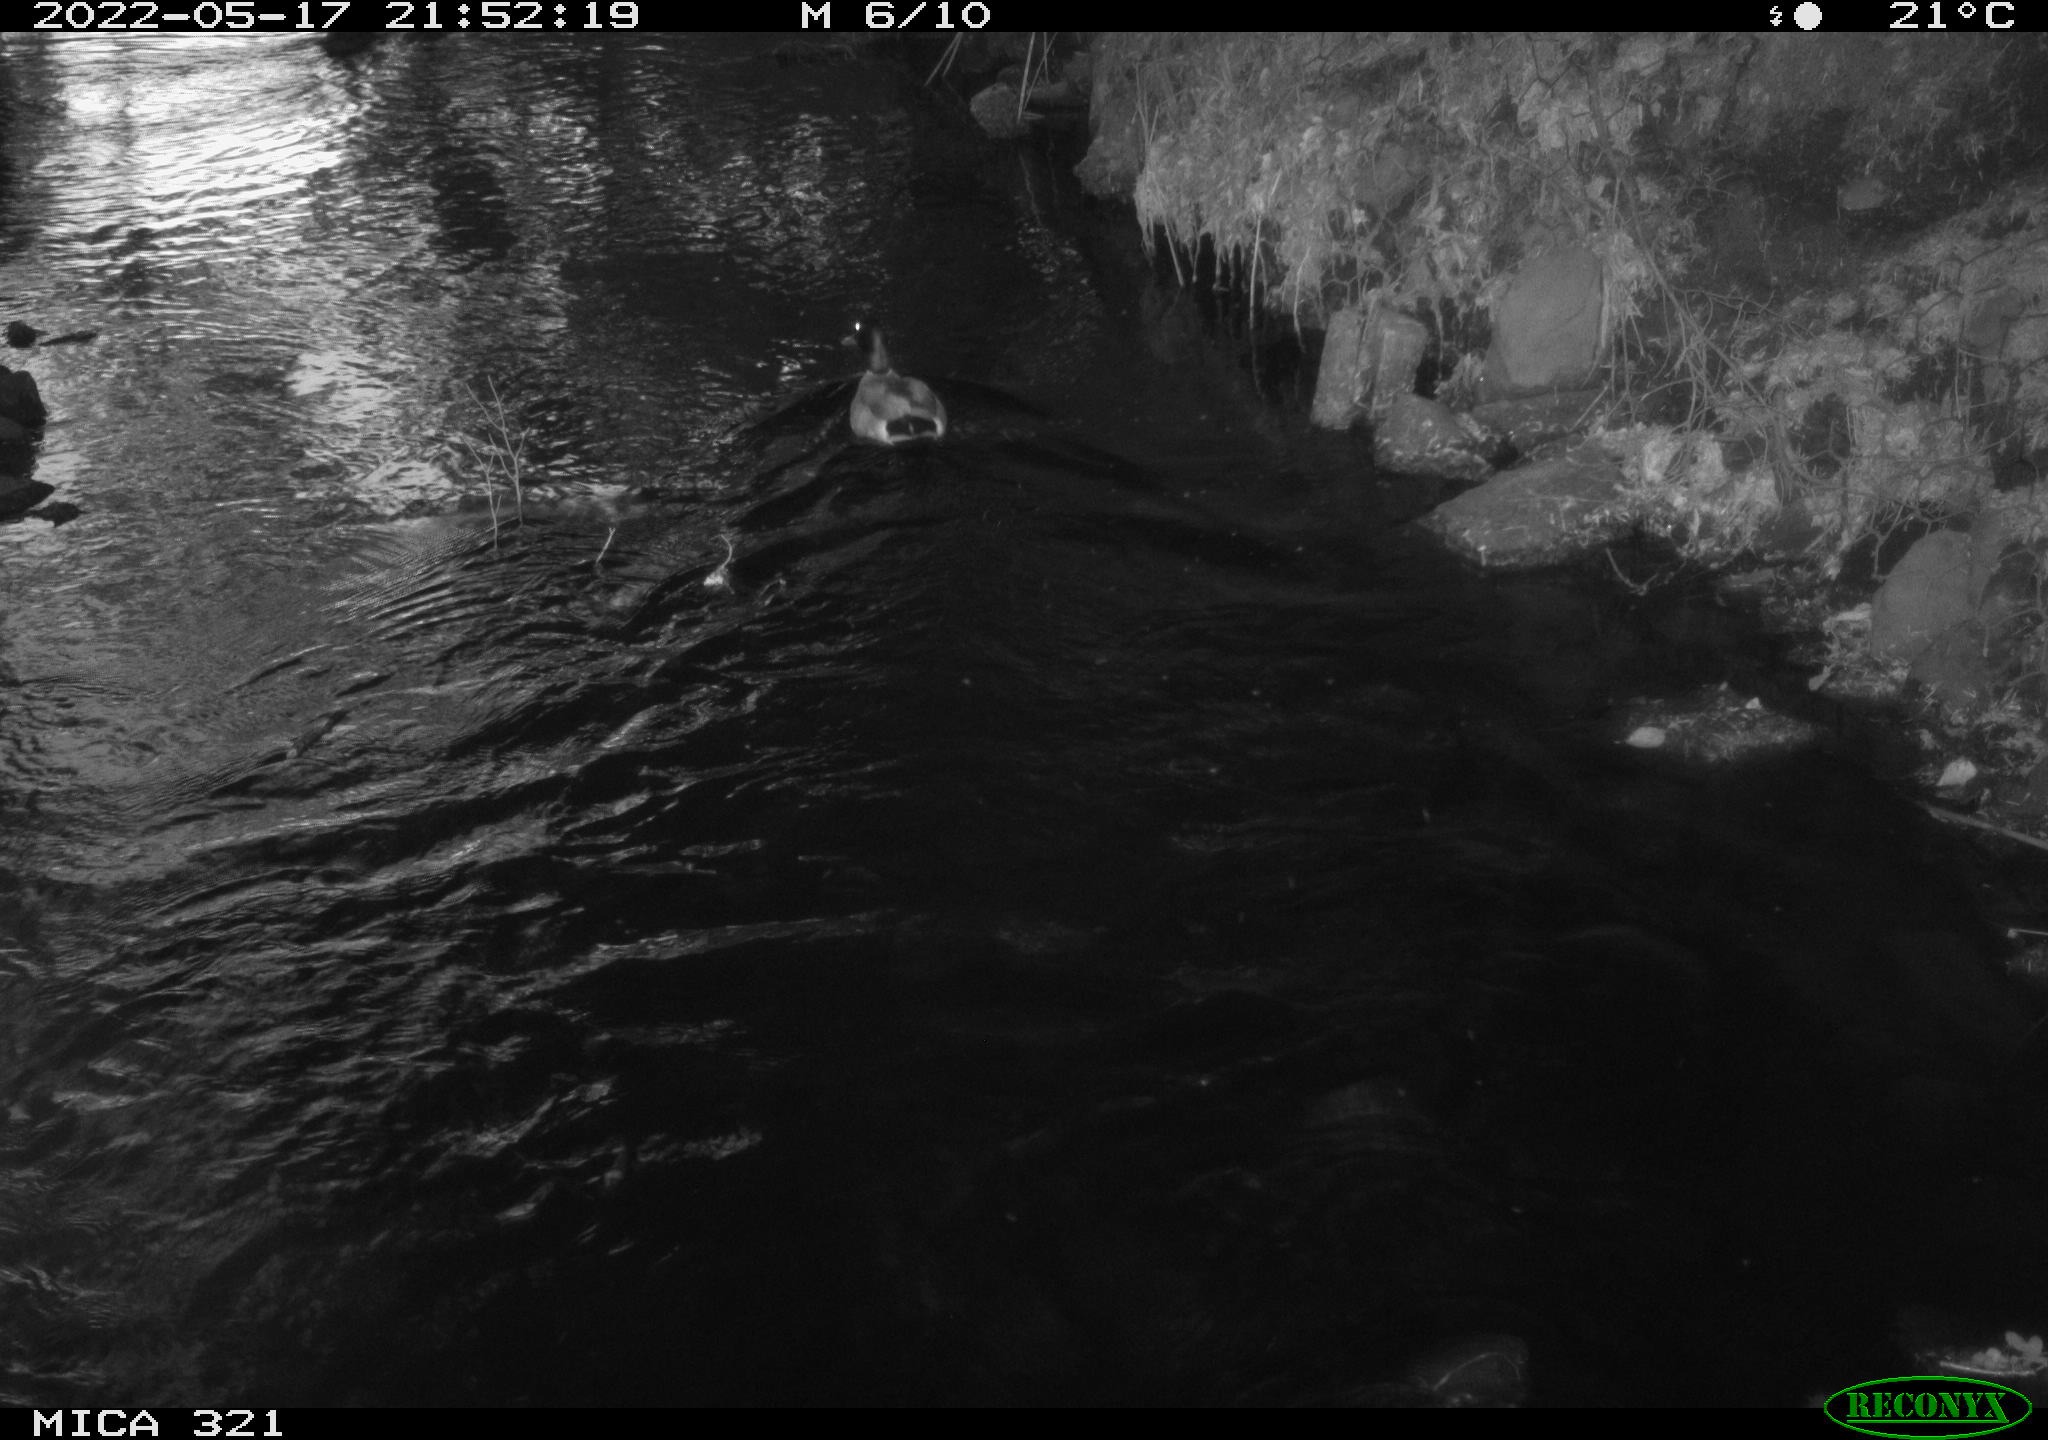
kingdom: Animalia
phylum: Chordata
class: Aves
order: Anseriformes
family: Anatidae
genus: Anas
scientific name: Anas platyrhynchos
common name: Mallard
